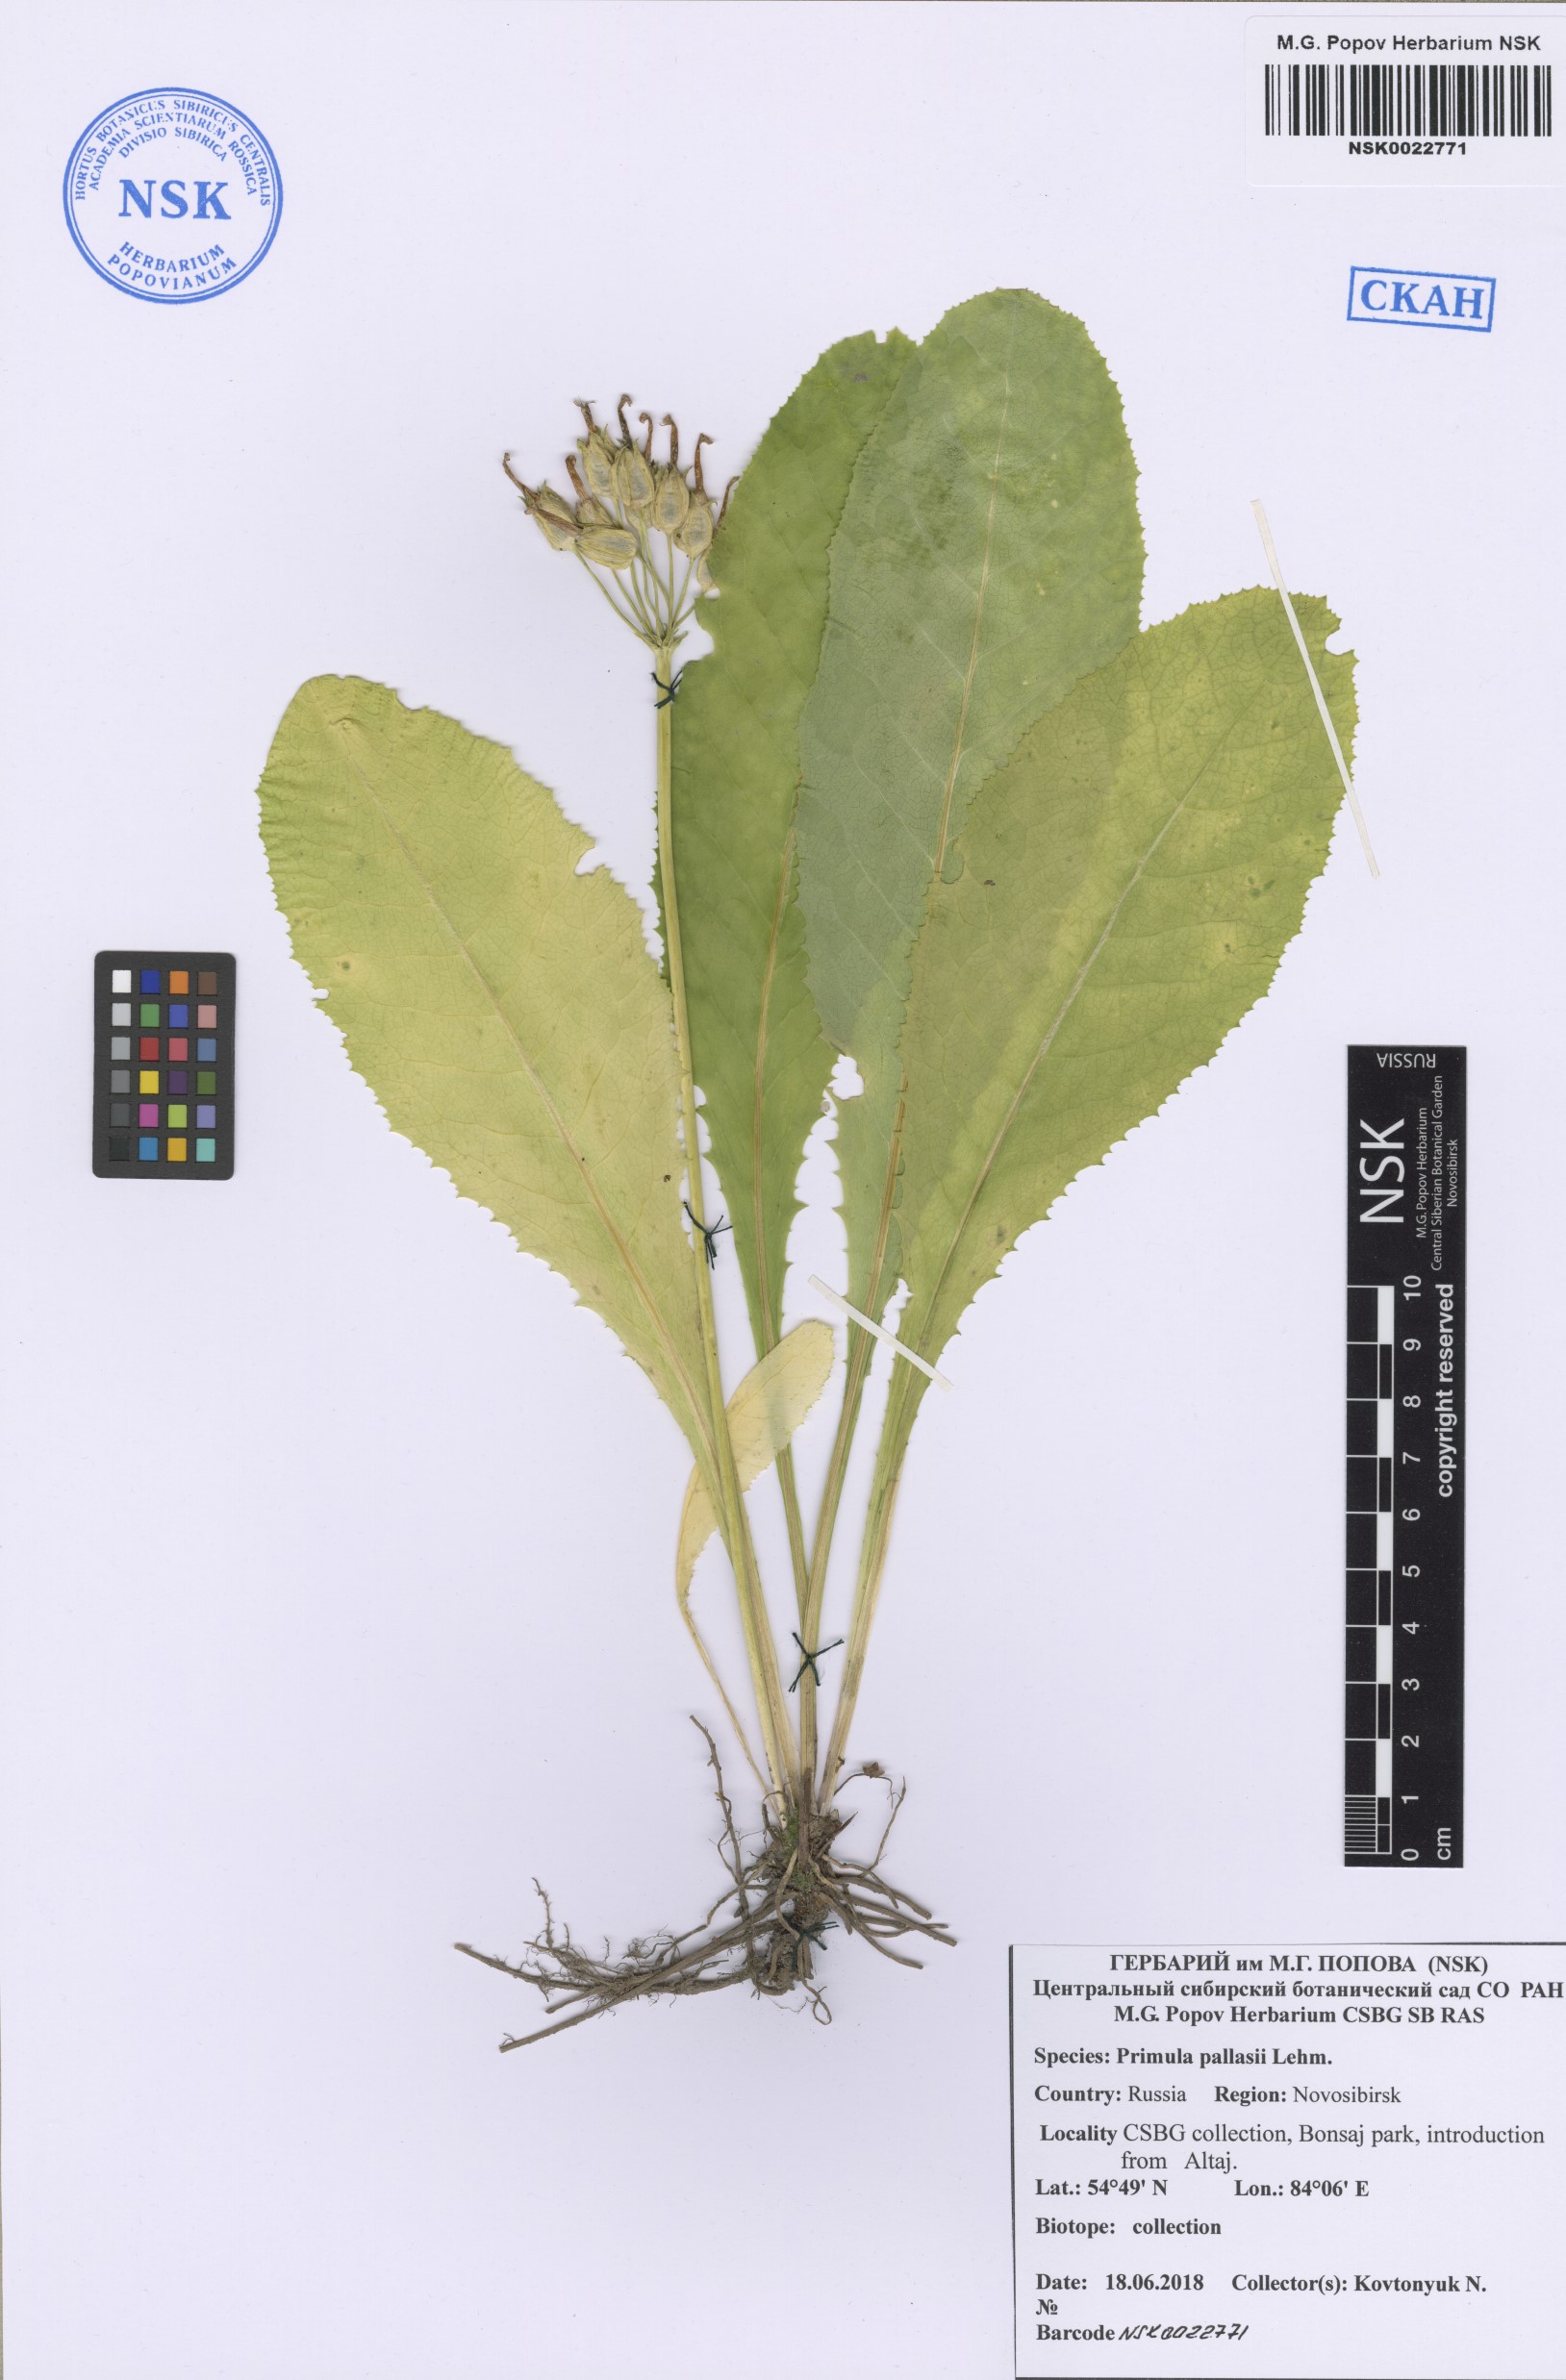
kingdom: Plantae
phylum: Tracheophyta
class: Magnoliopsida
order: Ericales
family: Primulaceae
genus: Primula
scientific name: Primula elatior
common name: Oxlip
